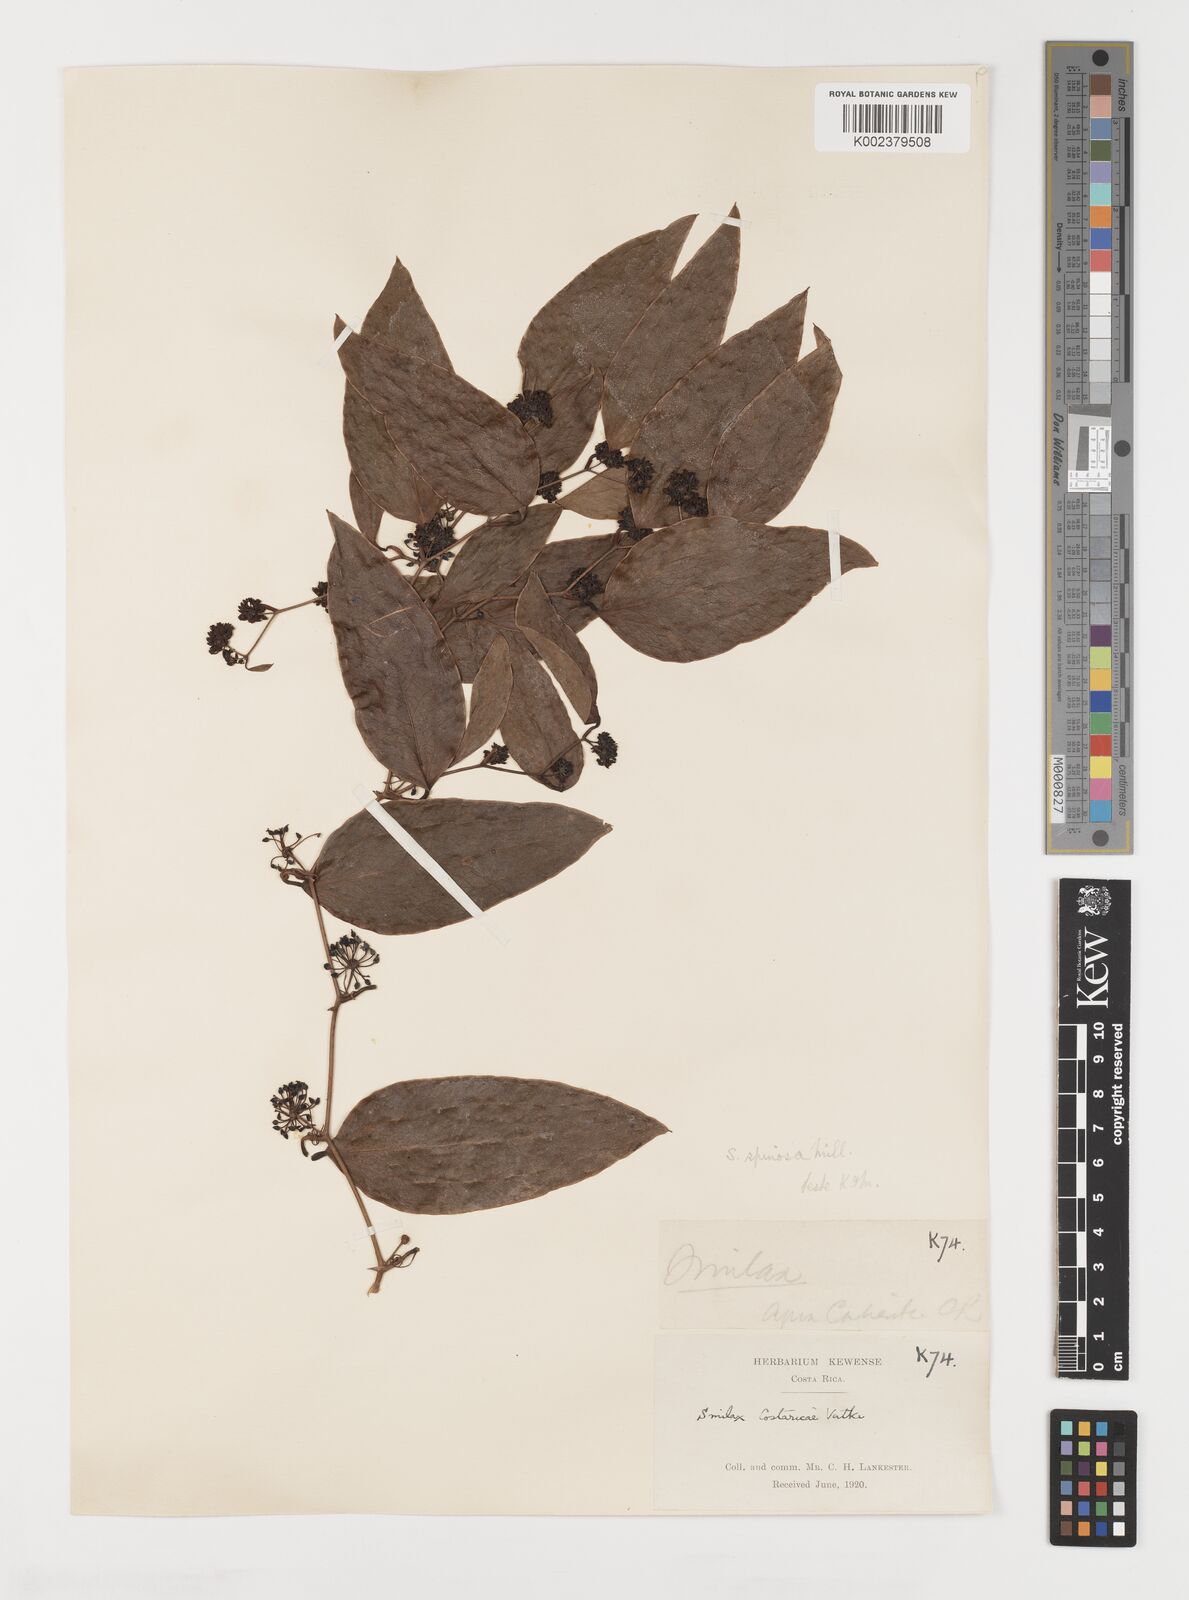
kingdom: Plantae
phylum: Tracheophyta
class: Liliopsida
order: Liliales
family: Smilacaceae
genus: Smilax
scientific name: Smilax spinosa
